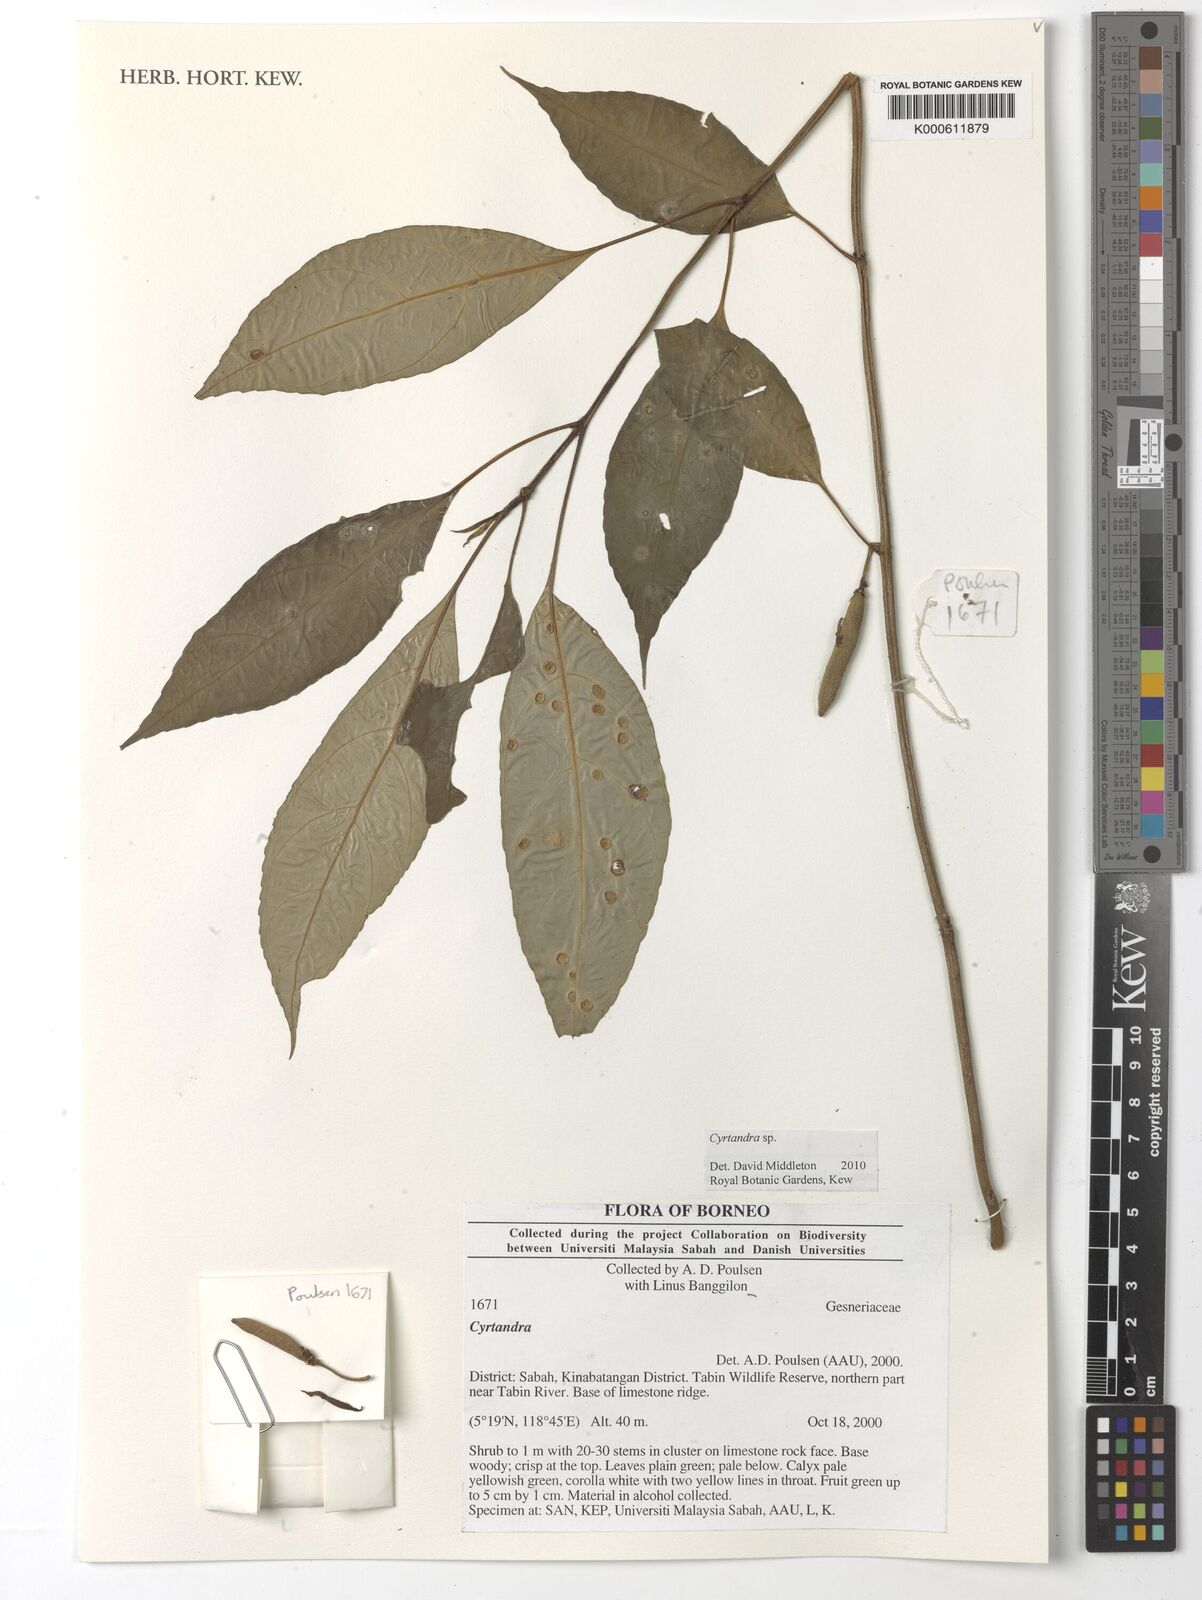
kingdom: Plantae
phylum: Tracheophyta
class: Magnoliopsida
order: Lamiales
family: Gesneriaceae
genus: Cyrtandra
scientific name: Cyrtandra
